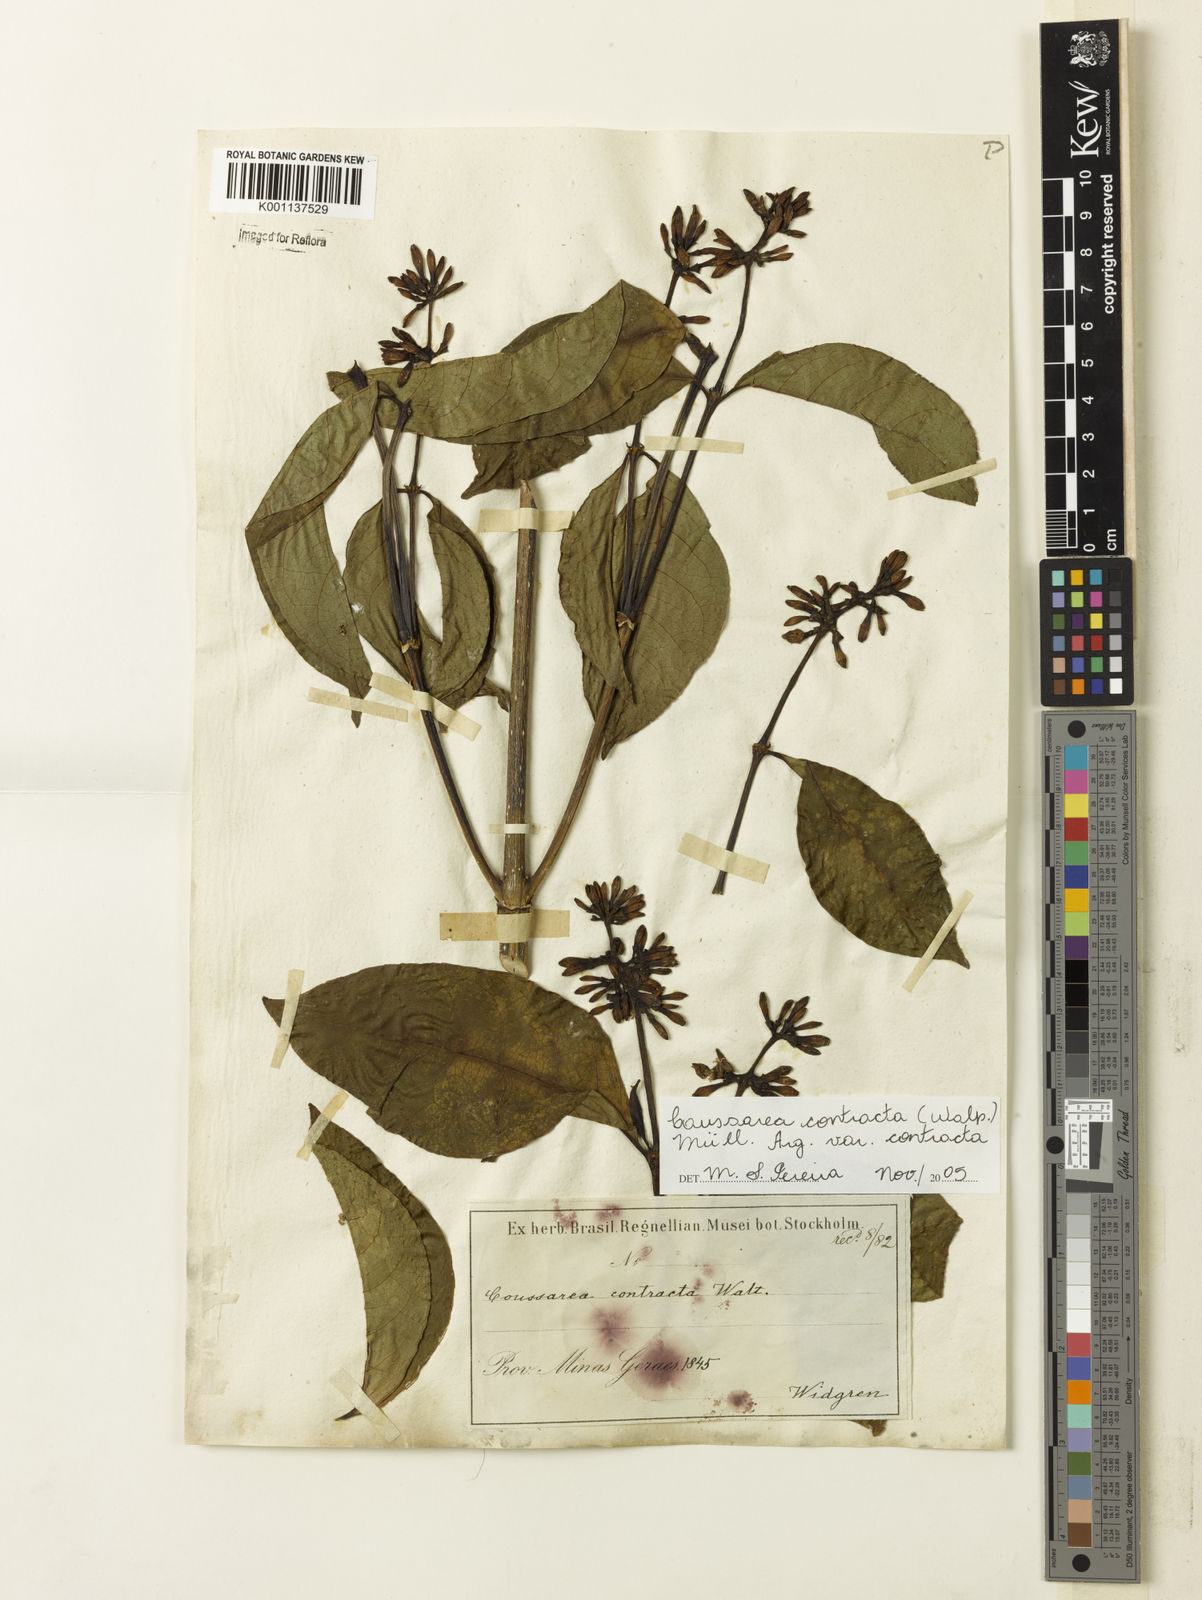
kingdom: Plantae
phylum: Tracheophyta
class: Magnoliopsida
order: Gentianales
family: Rubiaceae
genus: Coussarea
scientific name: Coussarea
